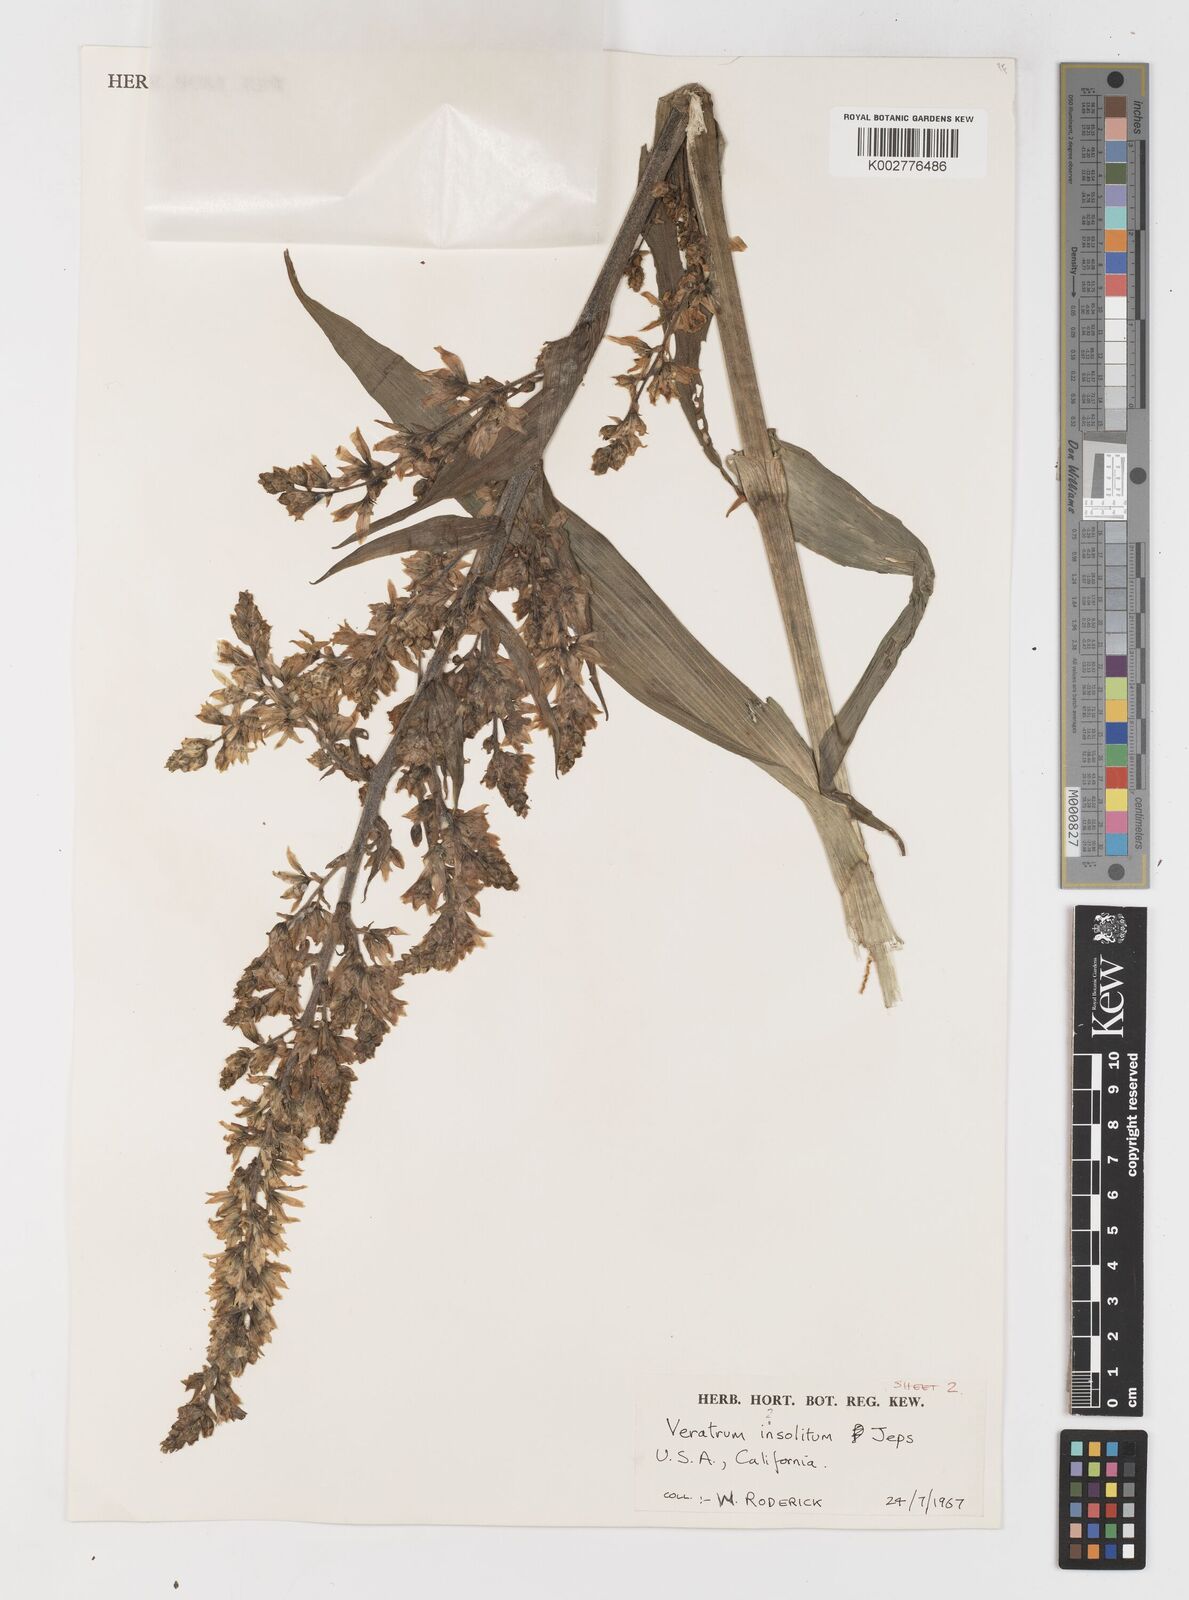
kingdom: Plantae
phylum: Tracheophyta
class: Liliopsida
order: Liliales
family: Melanthiaceae
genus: Veratrum
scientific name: Veratrum insolitum
